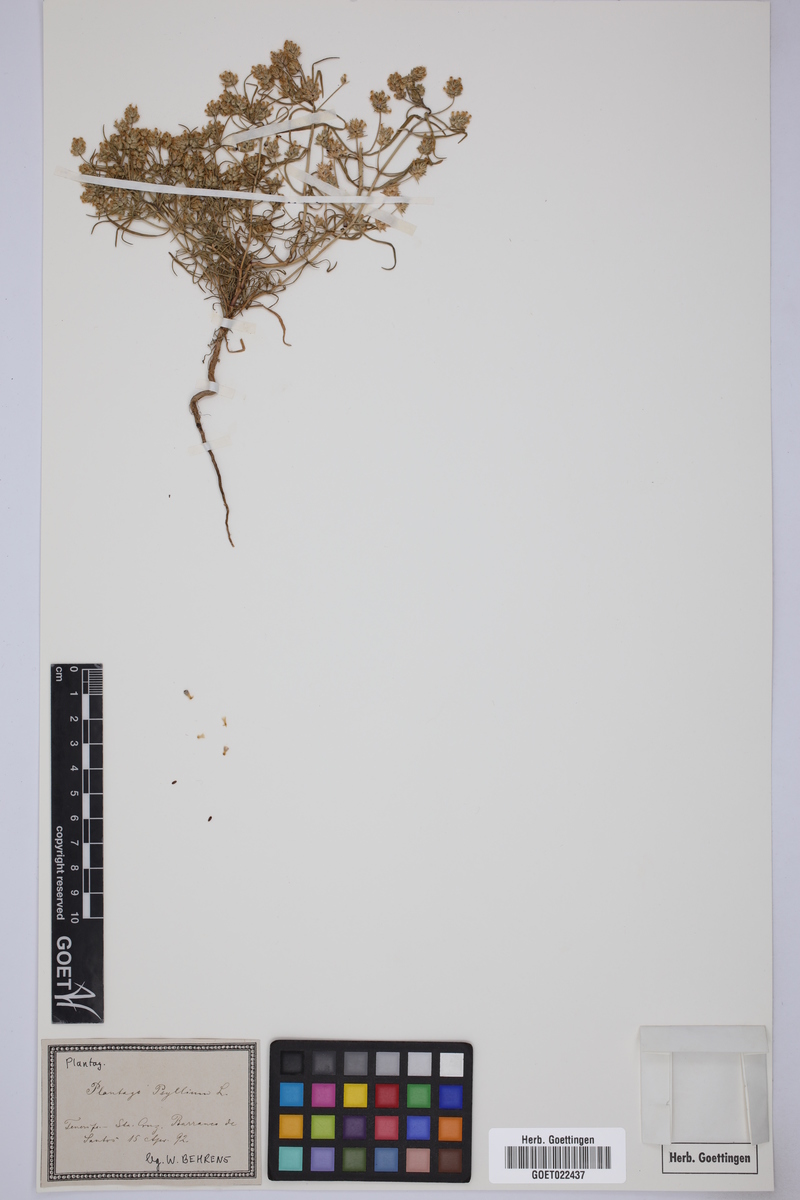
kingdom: Plantae
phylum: Tracheophyta
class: Magnoliopsida
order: Lamiales
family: Plantaginaceae
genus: Plantago
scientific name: Plantago
